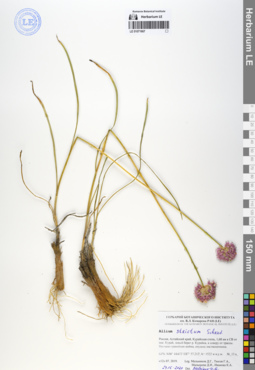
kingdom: Plantae
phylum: Tracheophyta
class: Liliopsida
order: Asparagales
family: Amaryllidaceae
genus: Allium
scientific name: Allium strictum
